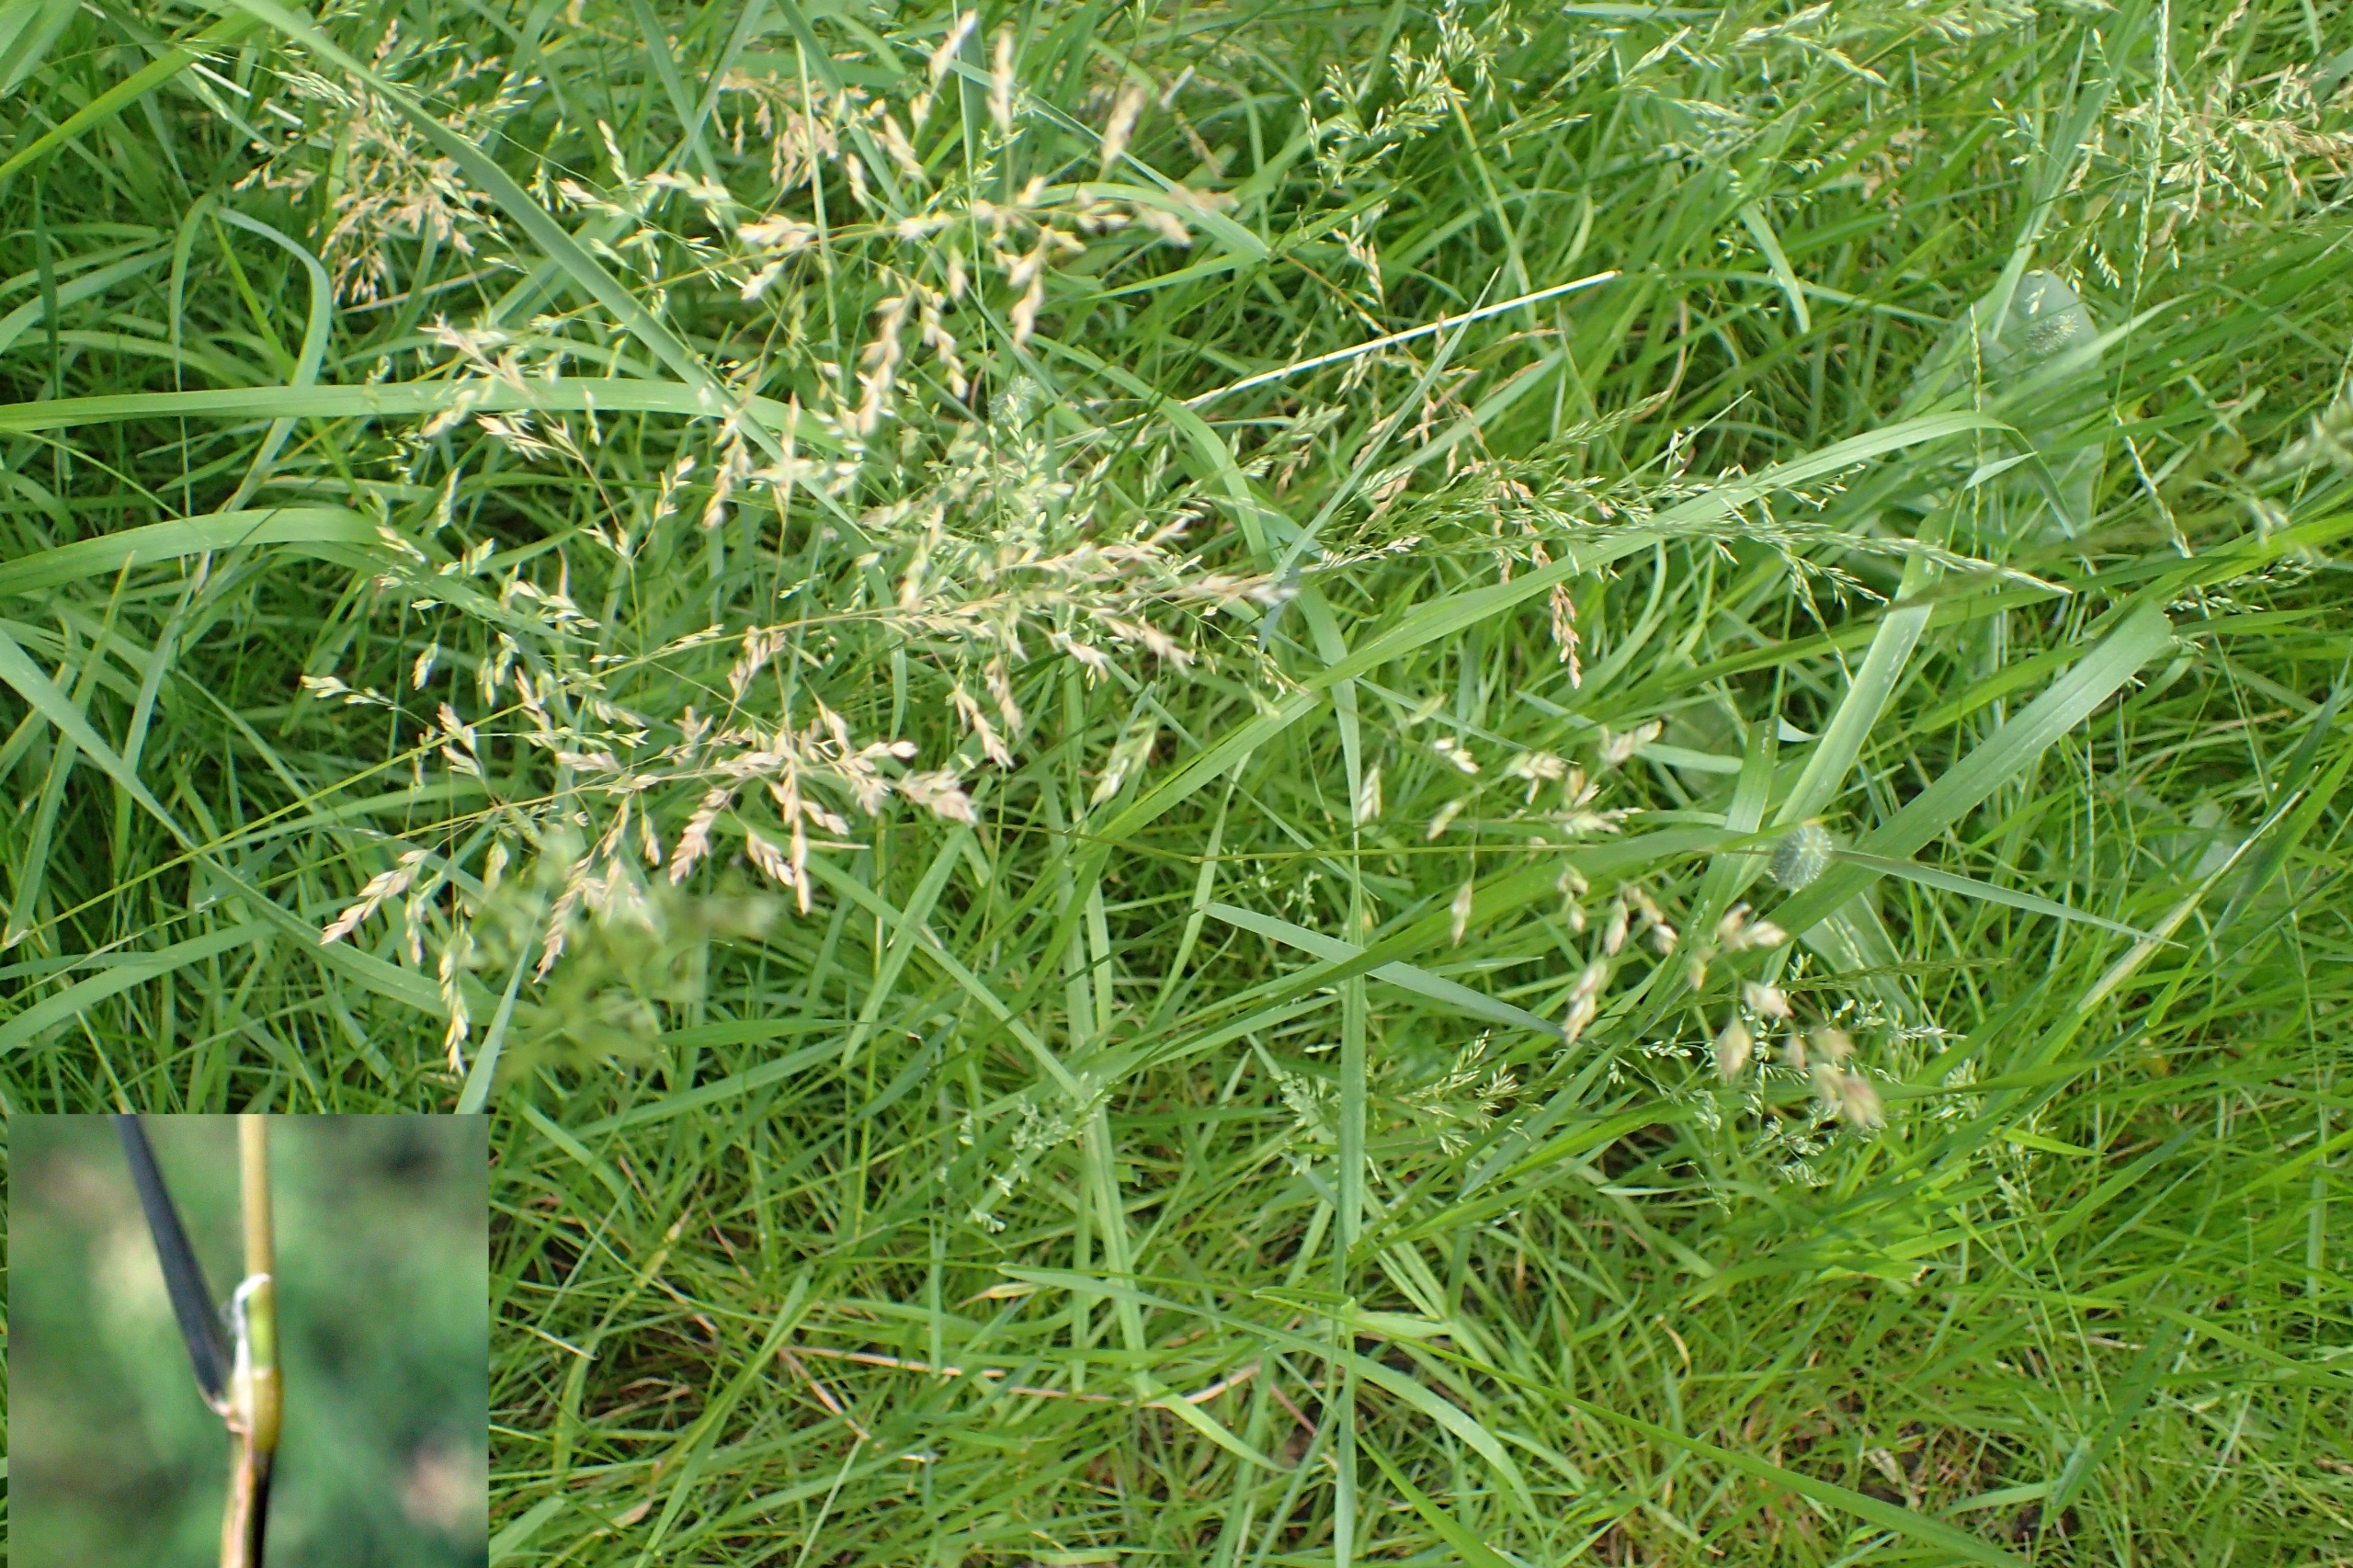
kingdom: Plantae
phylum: Tracheophyta
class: Liliopsida
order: Poales
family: Poaceae
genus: Poa
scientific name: Poa trivialis
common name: Almindelig rapgræs
